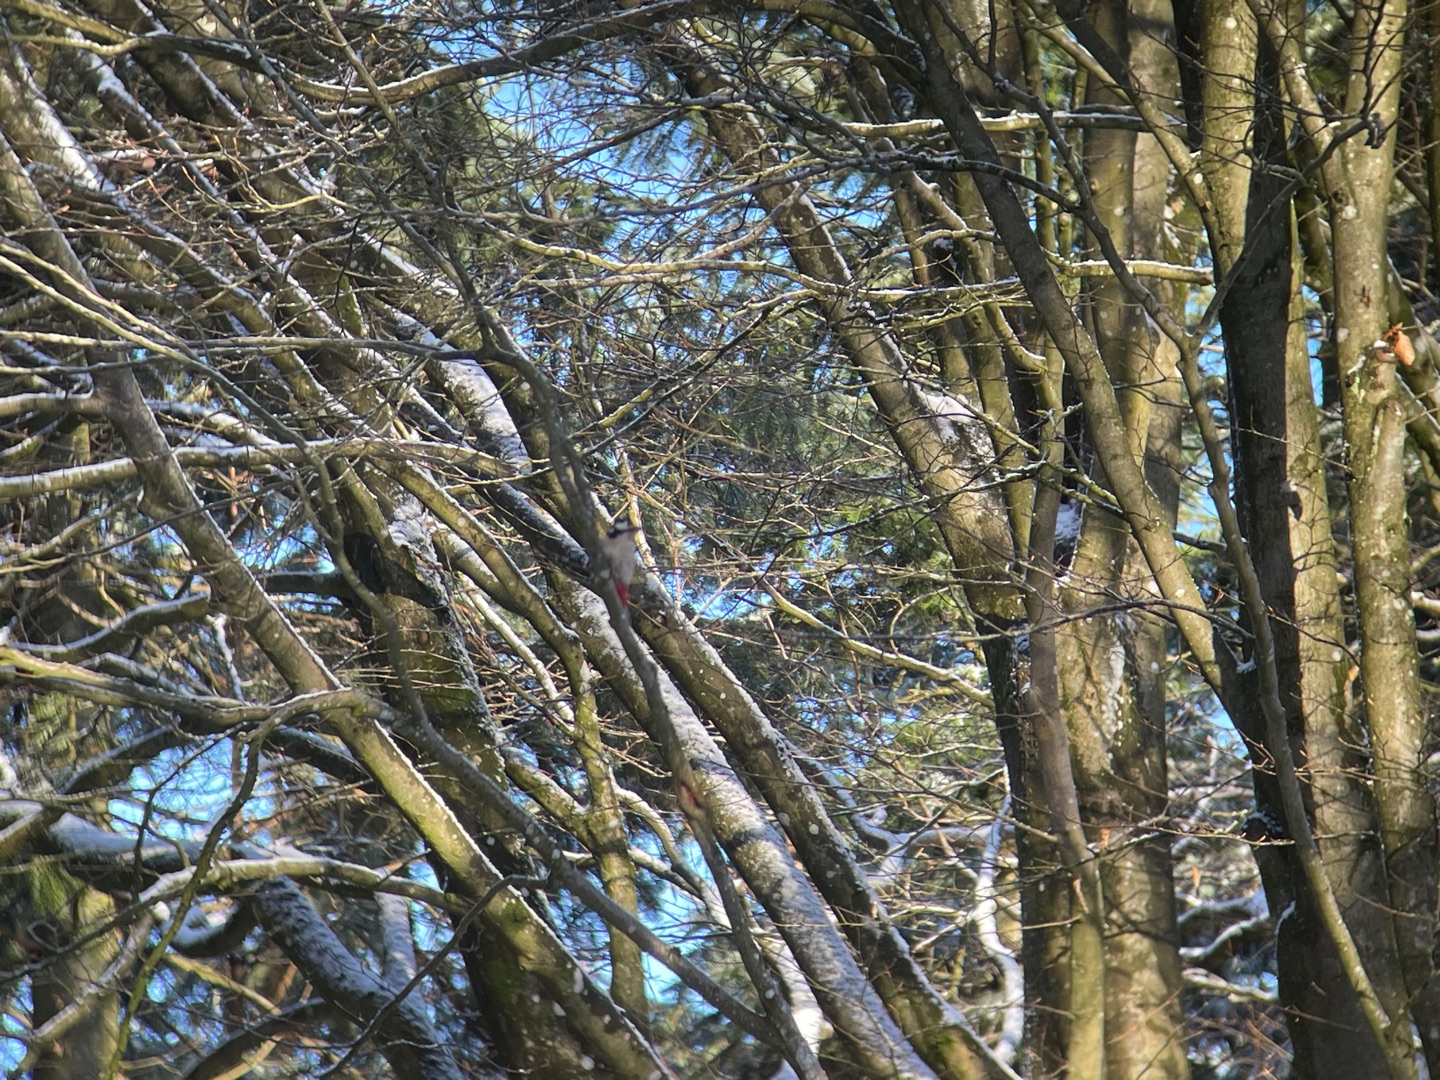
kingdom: Animalia
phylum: Chordata
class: Aves
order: Piciformes
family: Picidae
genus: Dendrocopos
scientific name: Dendrocopos major
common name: Stor flagspætte
